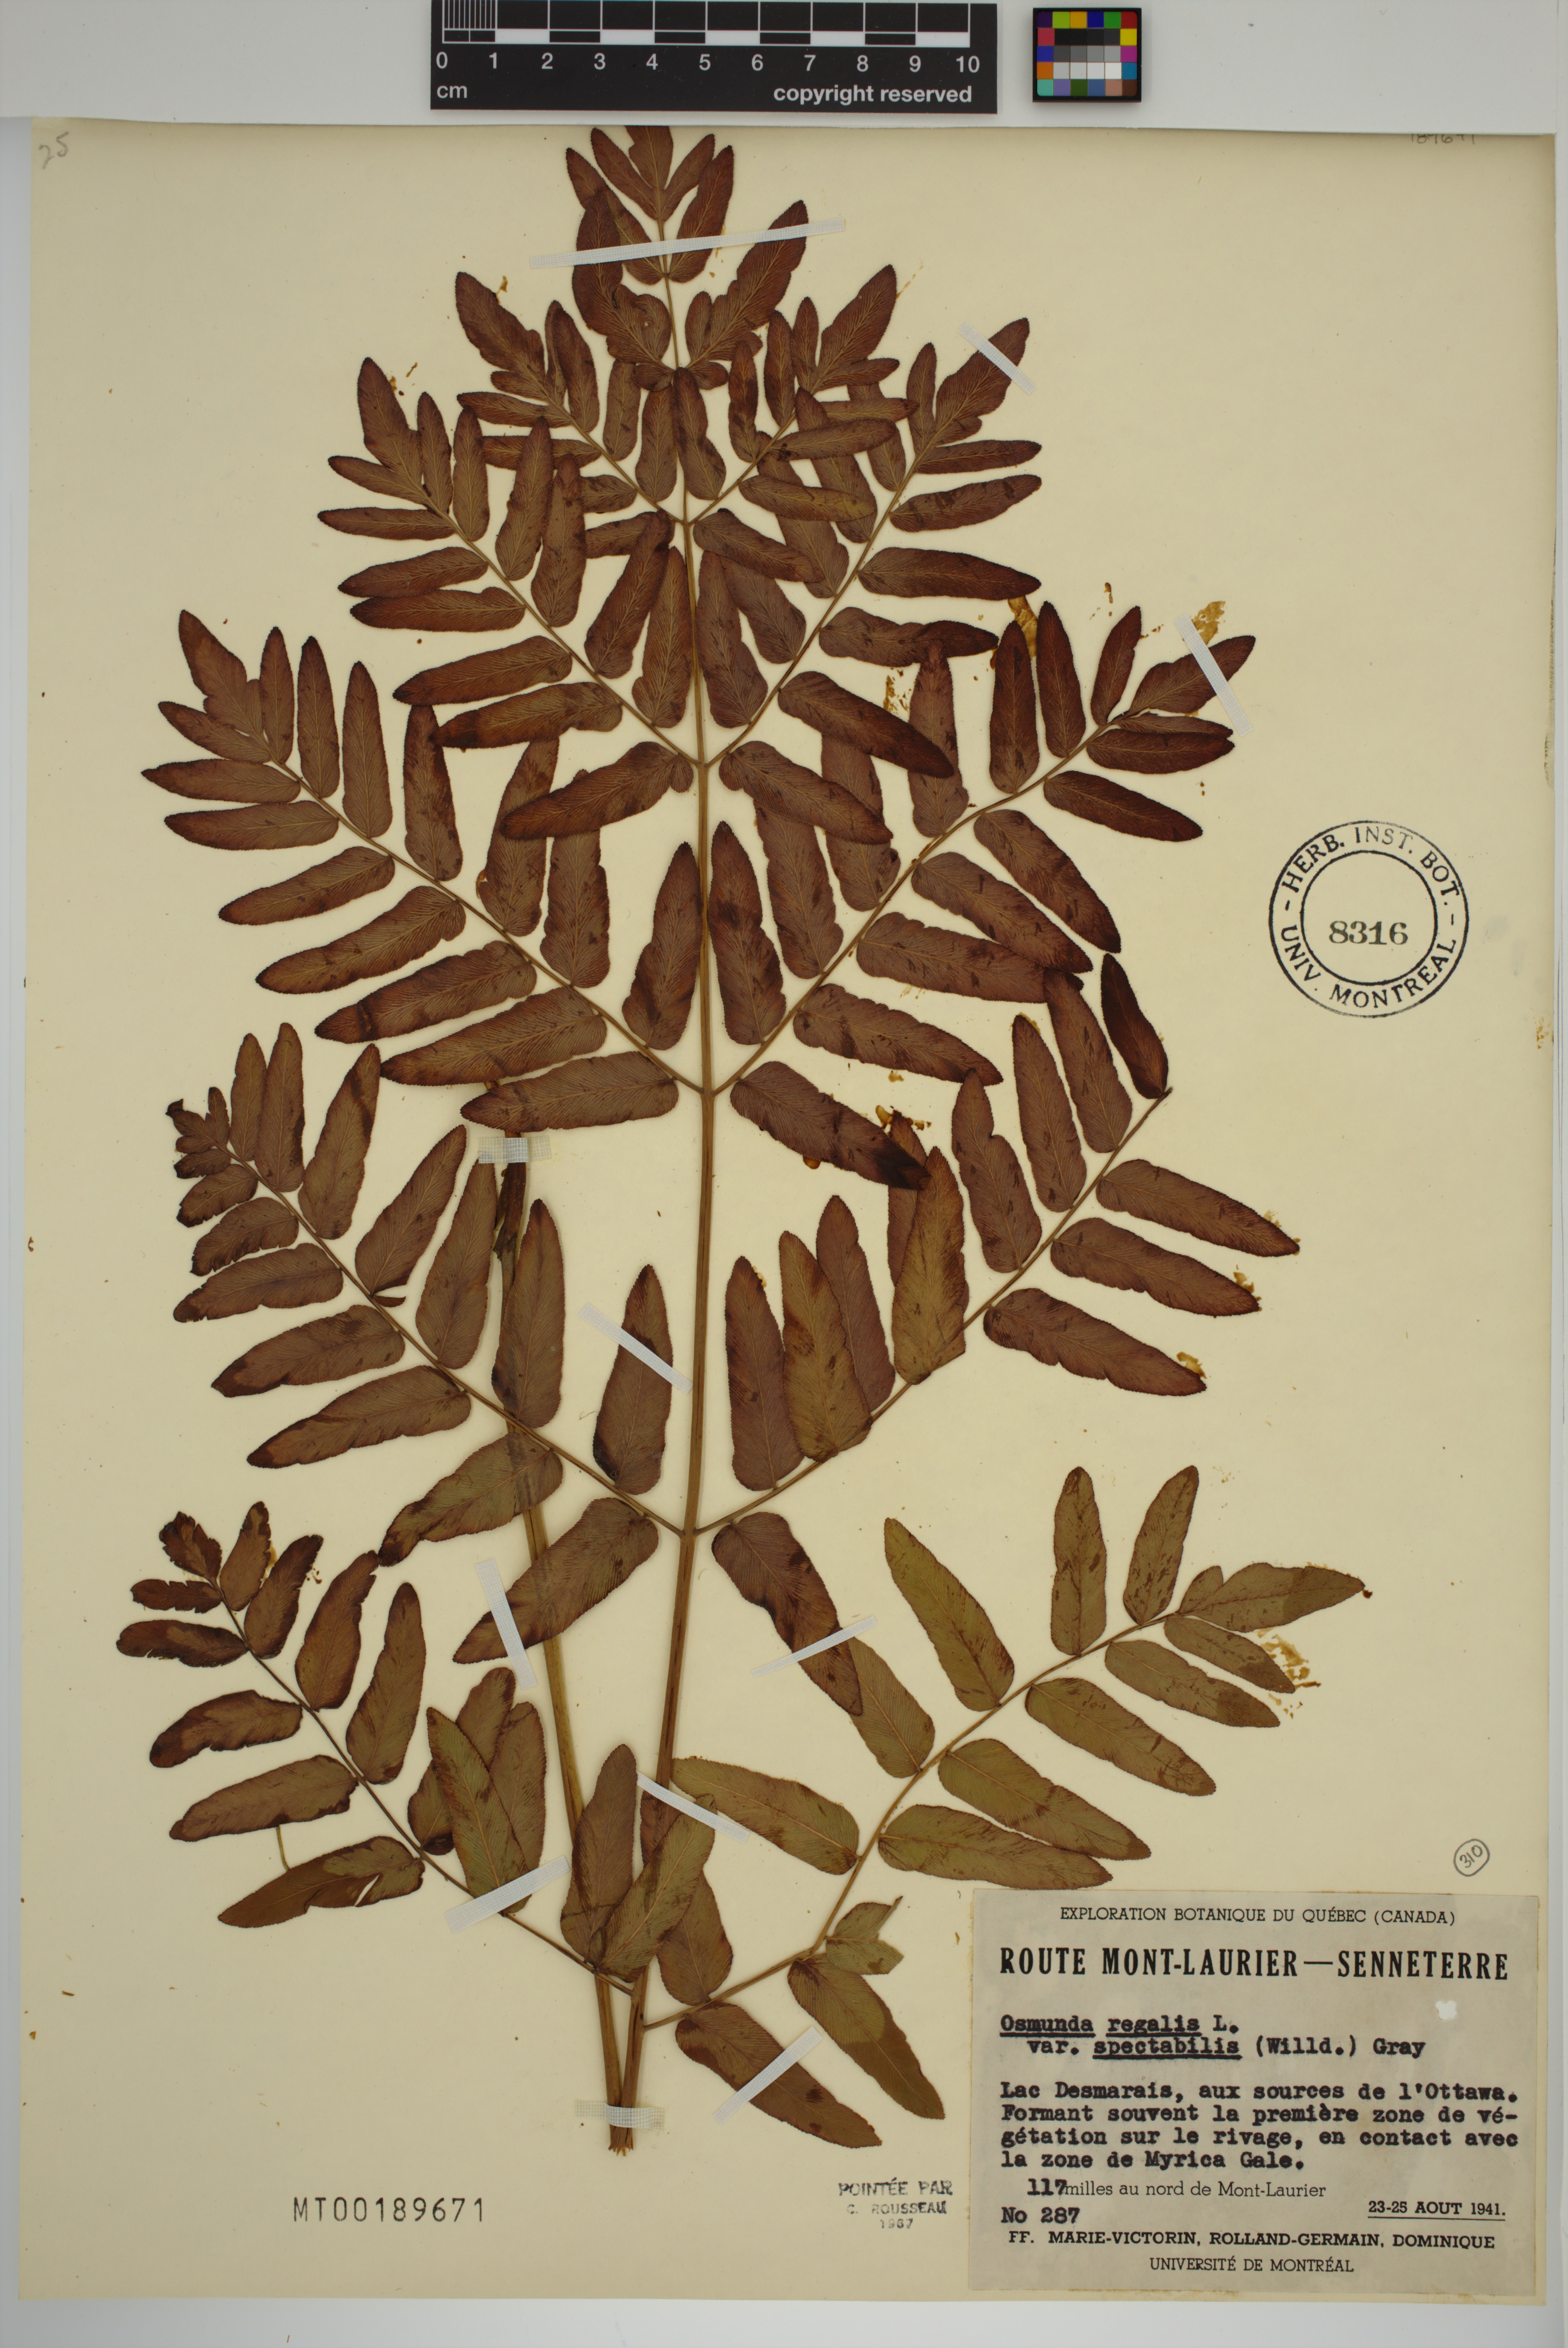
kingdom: Plantae
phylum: Tracheophyta
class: Polypodiopsida
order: Osmundales
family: Osmundaceae
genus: Osmunda
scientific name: Osmunda spectabilis
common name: American royal fern
